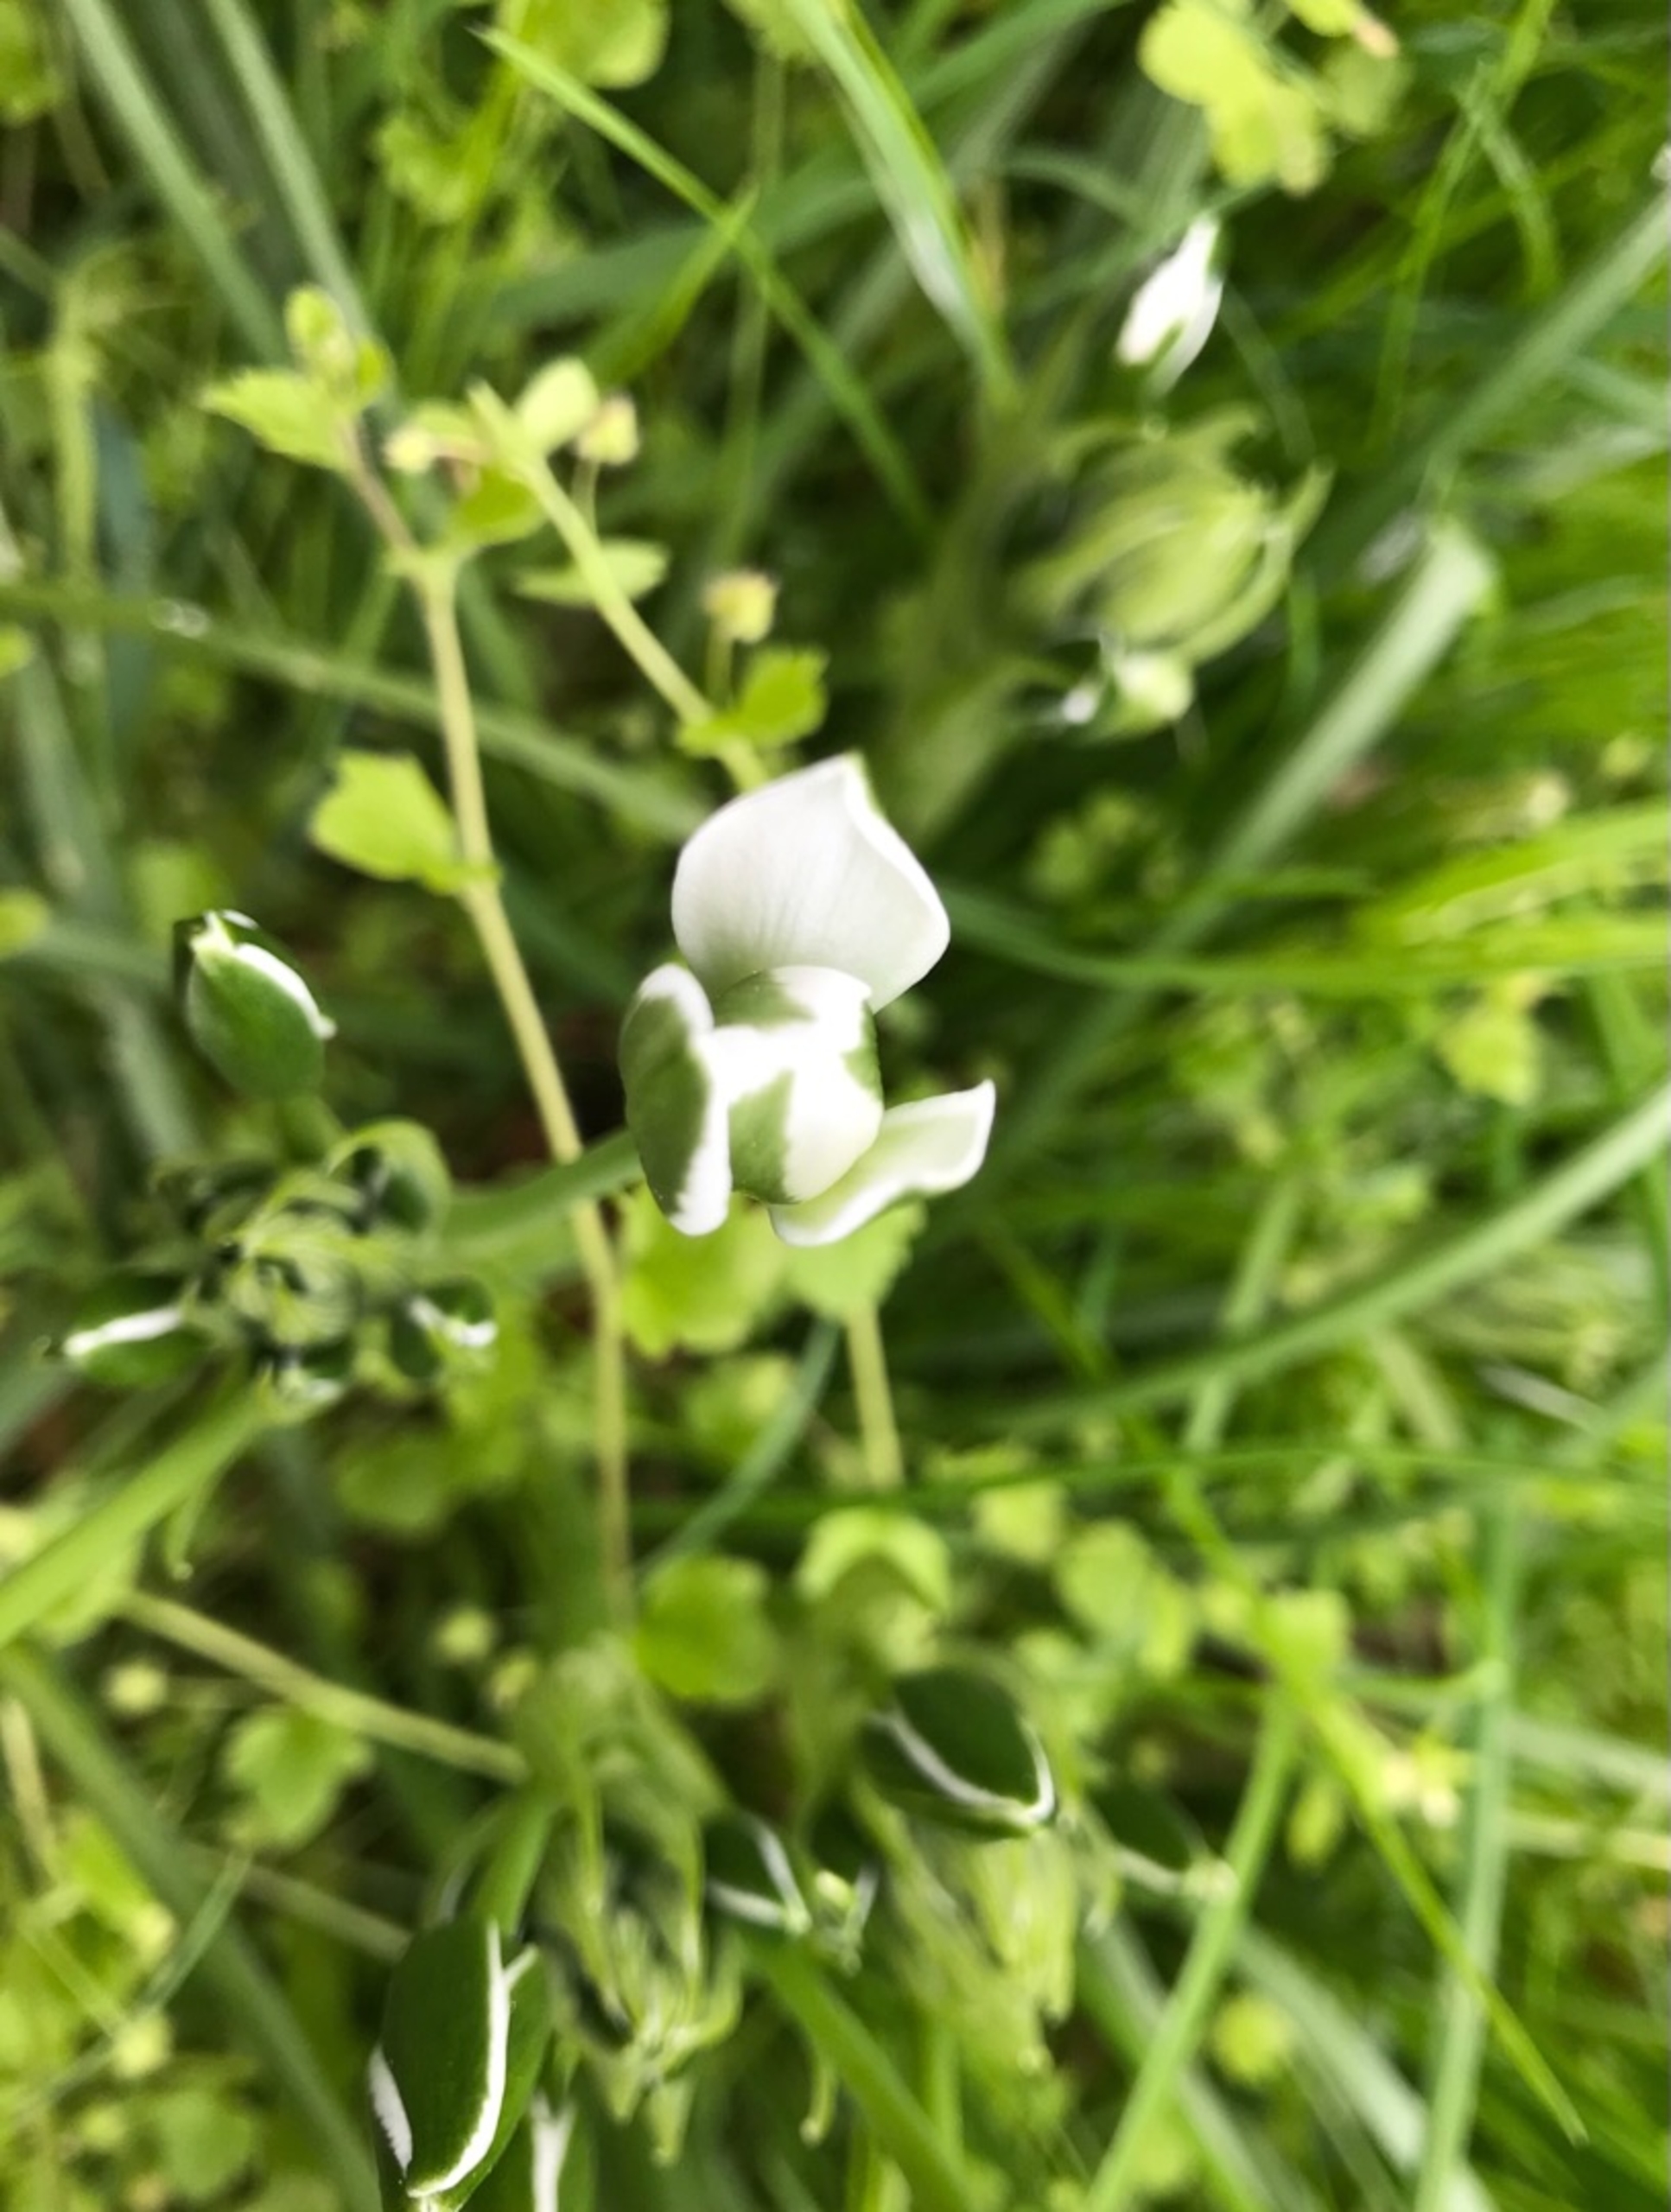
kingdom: Plantae
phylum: Tracheophyta
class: Liliopsida
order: Asparagales
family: Asparagaceae
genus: Ornithogalum
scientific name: Ornithogalum umbellatum
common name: Kost-fuglemælk
